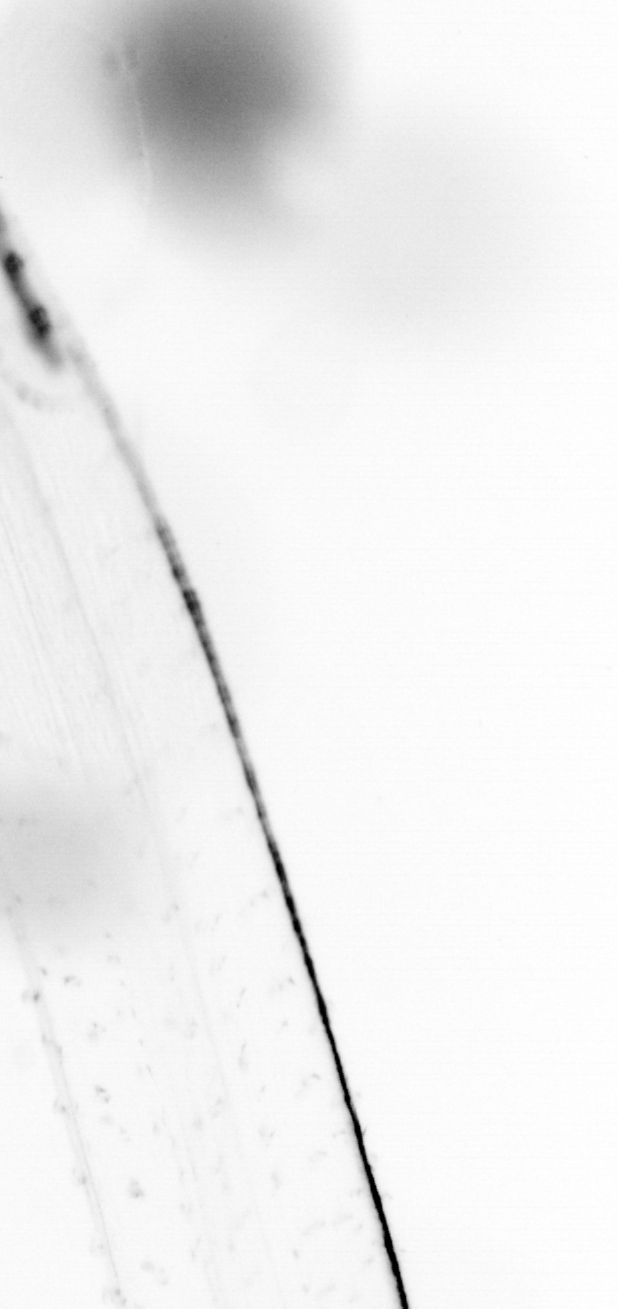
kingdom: Animalia
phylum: Chaetognatha
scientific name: Chaetognatha
